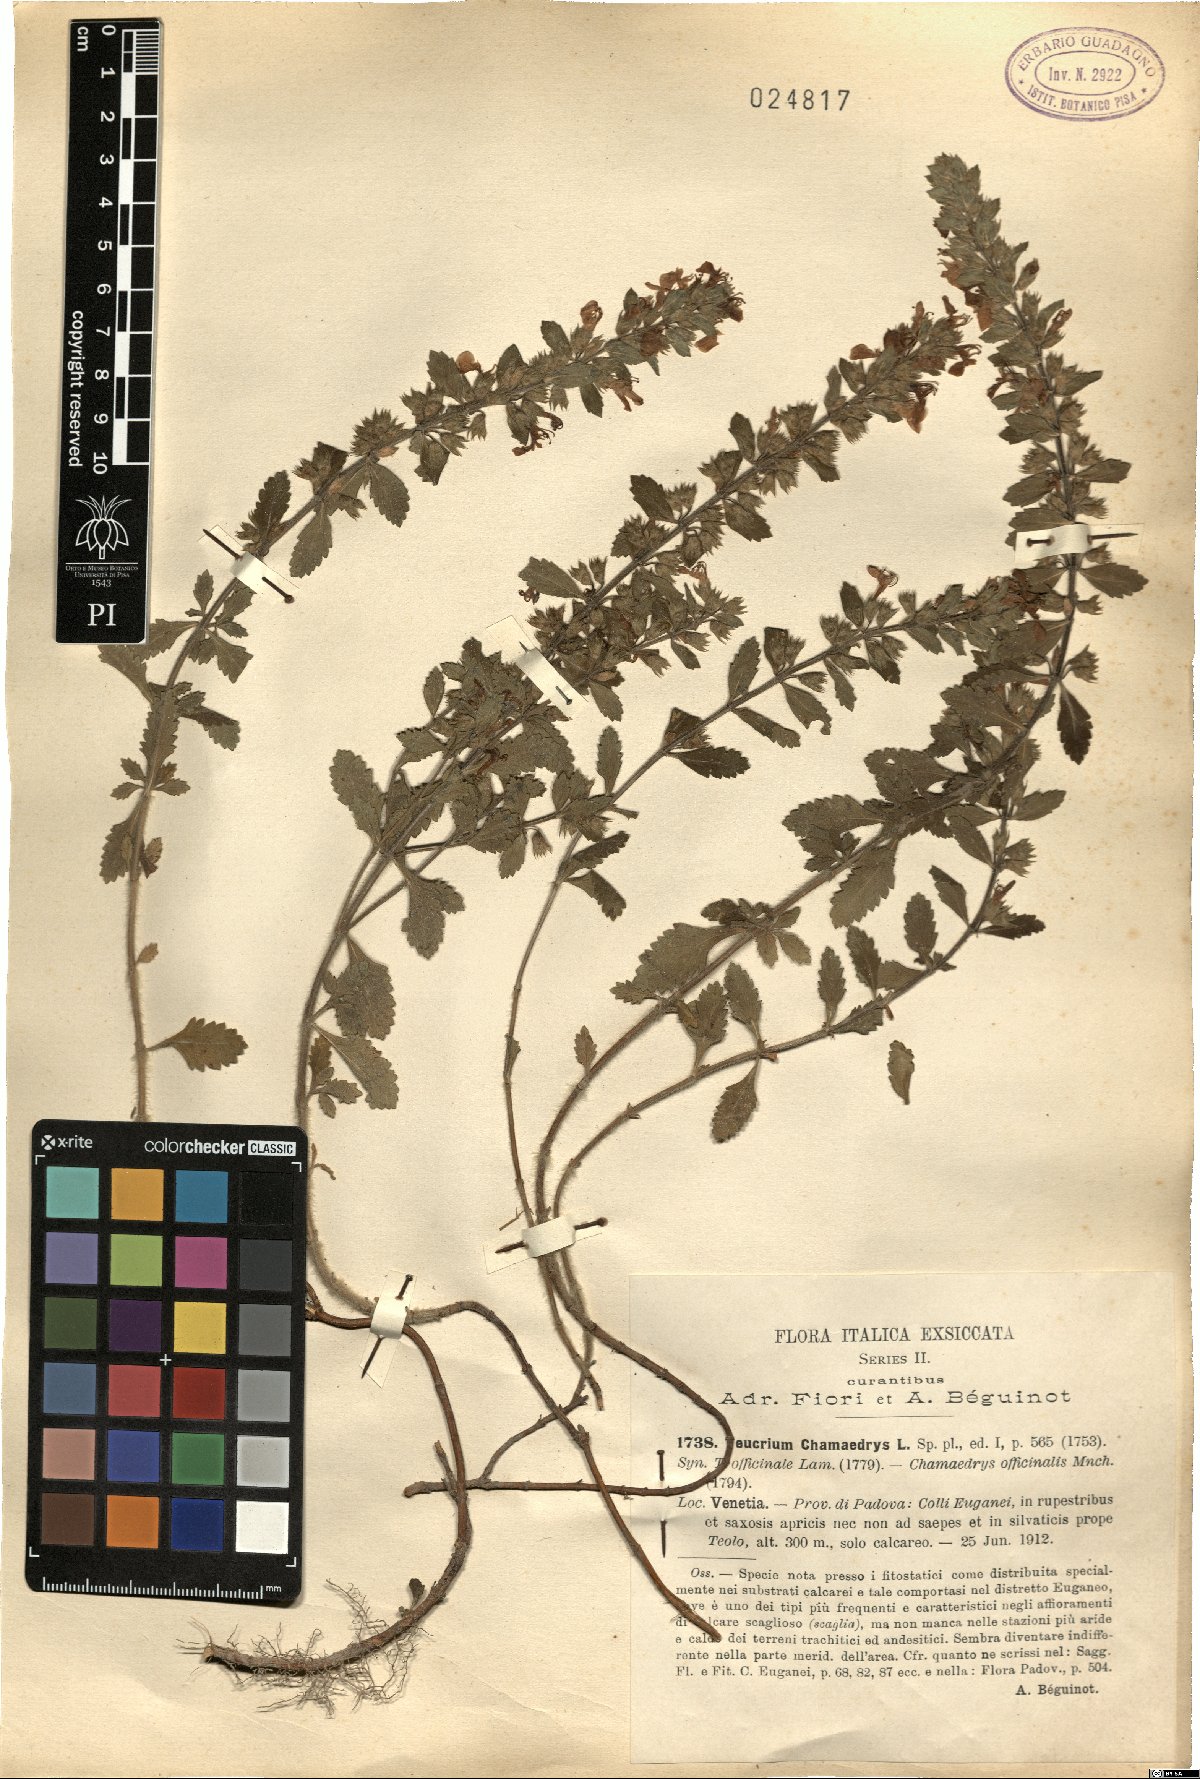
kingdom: Plantae
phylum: Tracheophyta
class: Magnoliopsida
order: Lamiales
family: Lamiaceae
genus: Teucrium
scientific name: Teucrium chamaedrys
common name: Wall germander
